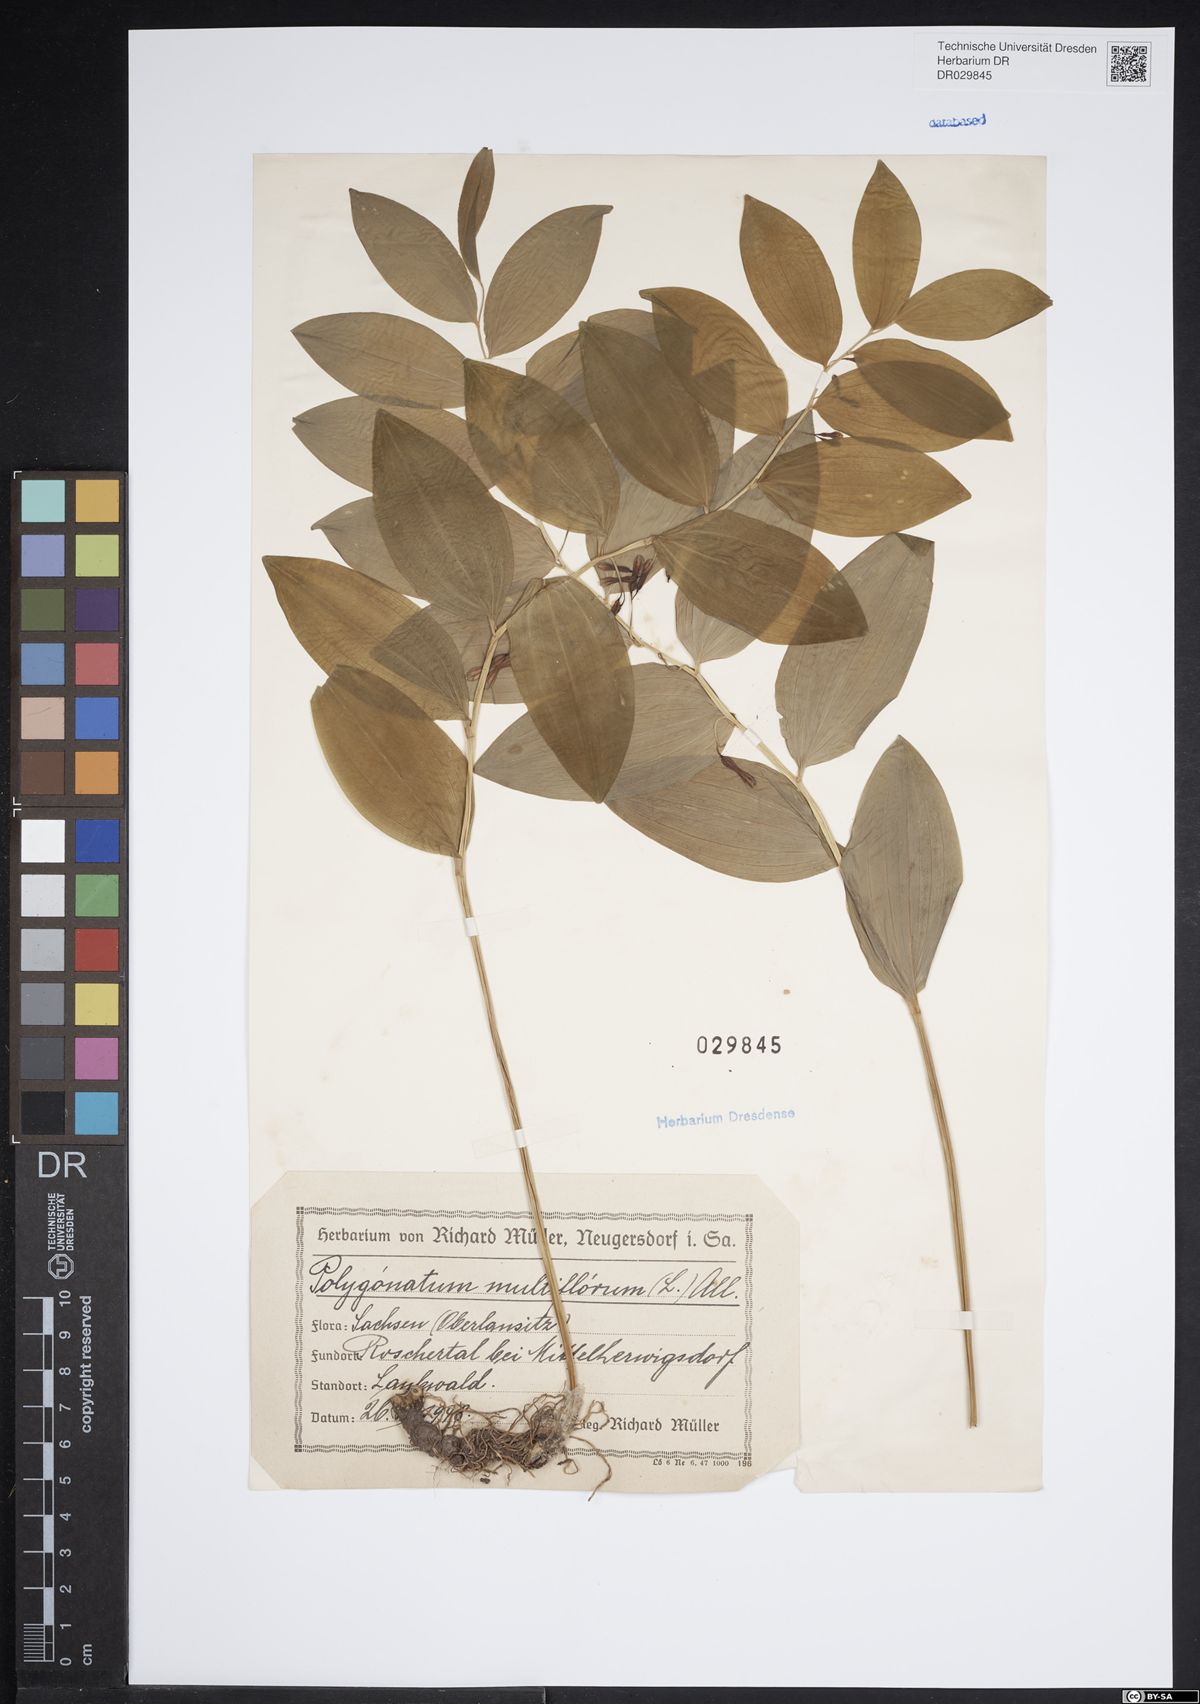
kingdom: Plantae
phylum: Tracheophyta
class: Liliopsida
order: Asparagales
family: Asparagaceae
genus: Polygonatum
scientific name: Polygonatum odoratum
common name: Angular solomon's-seal
